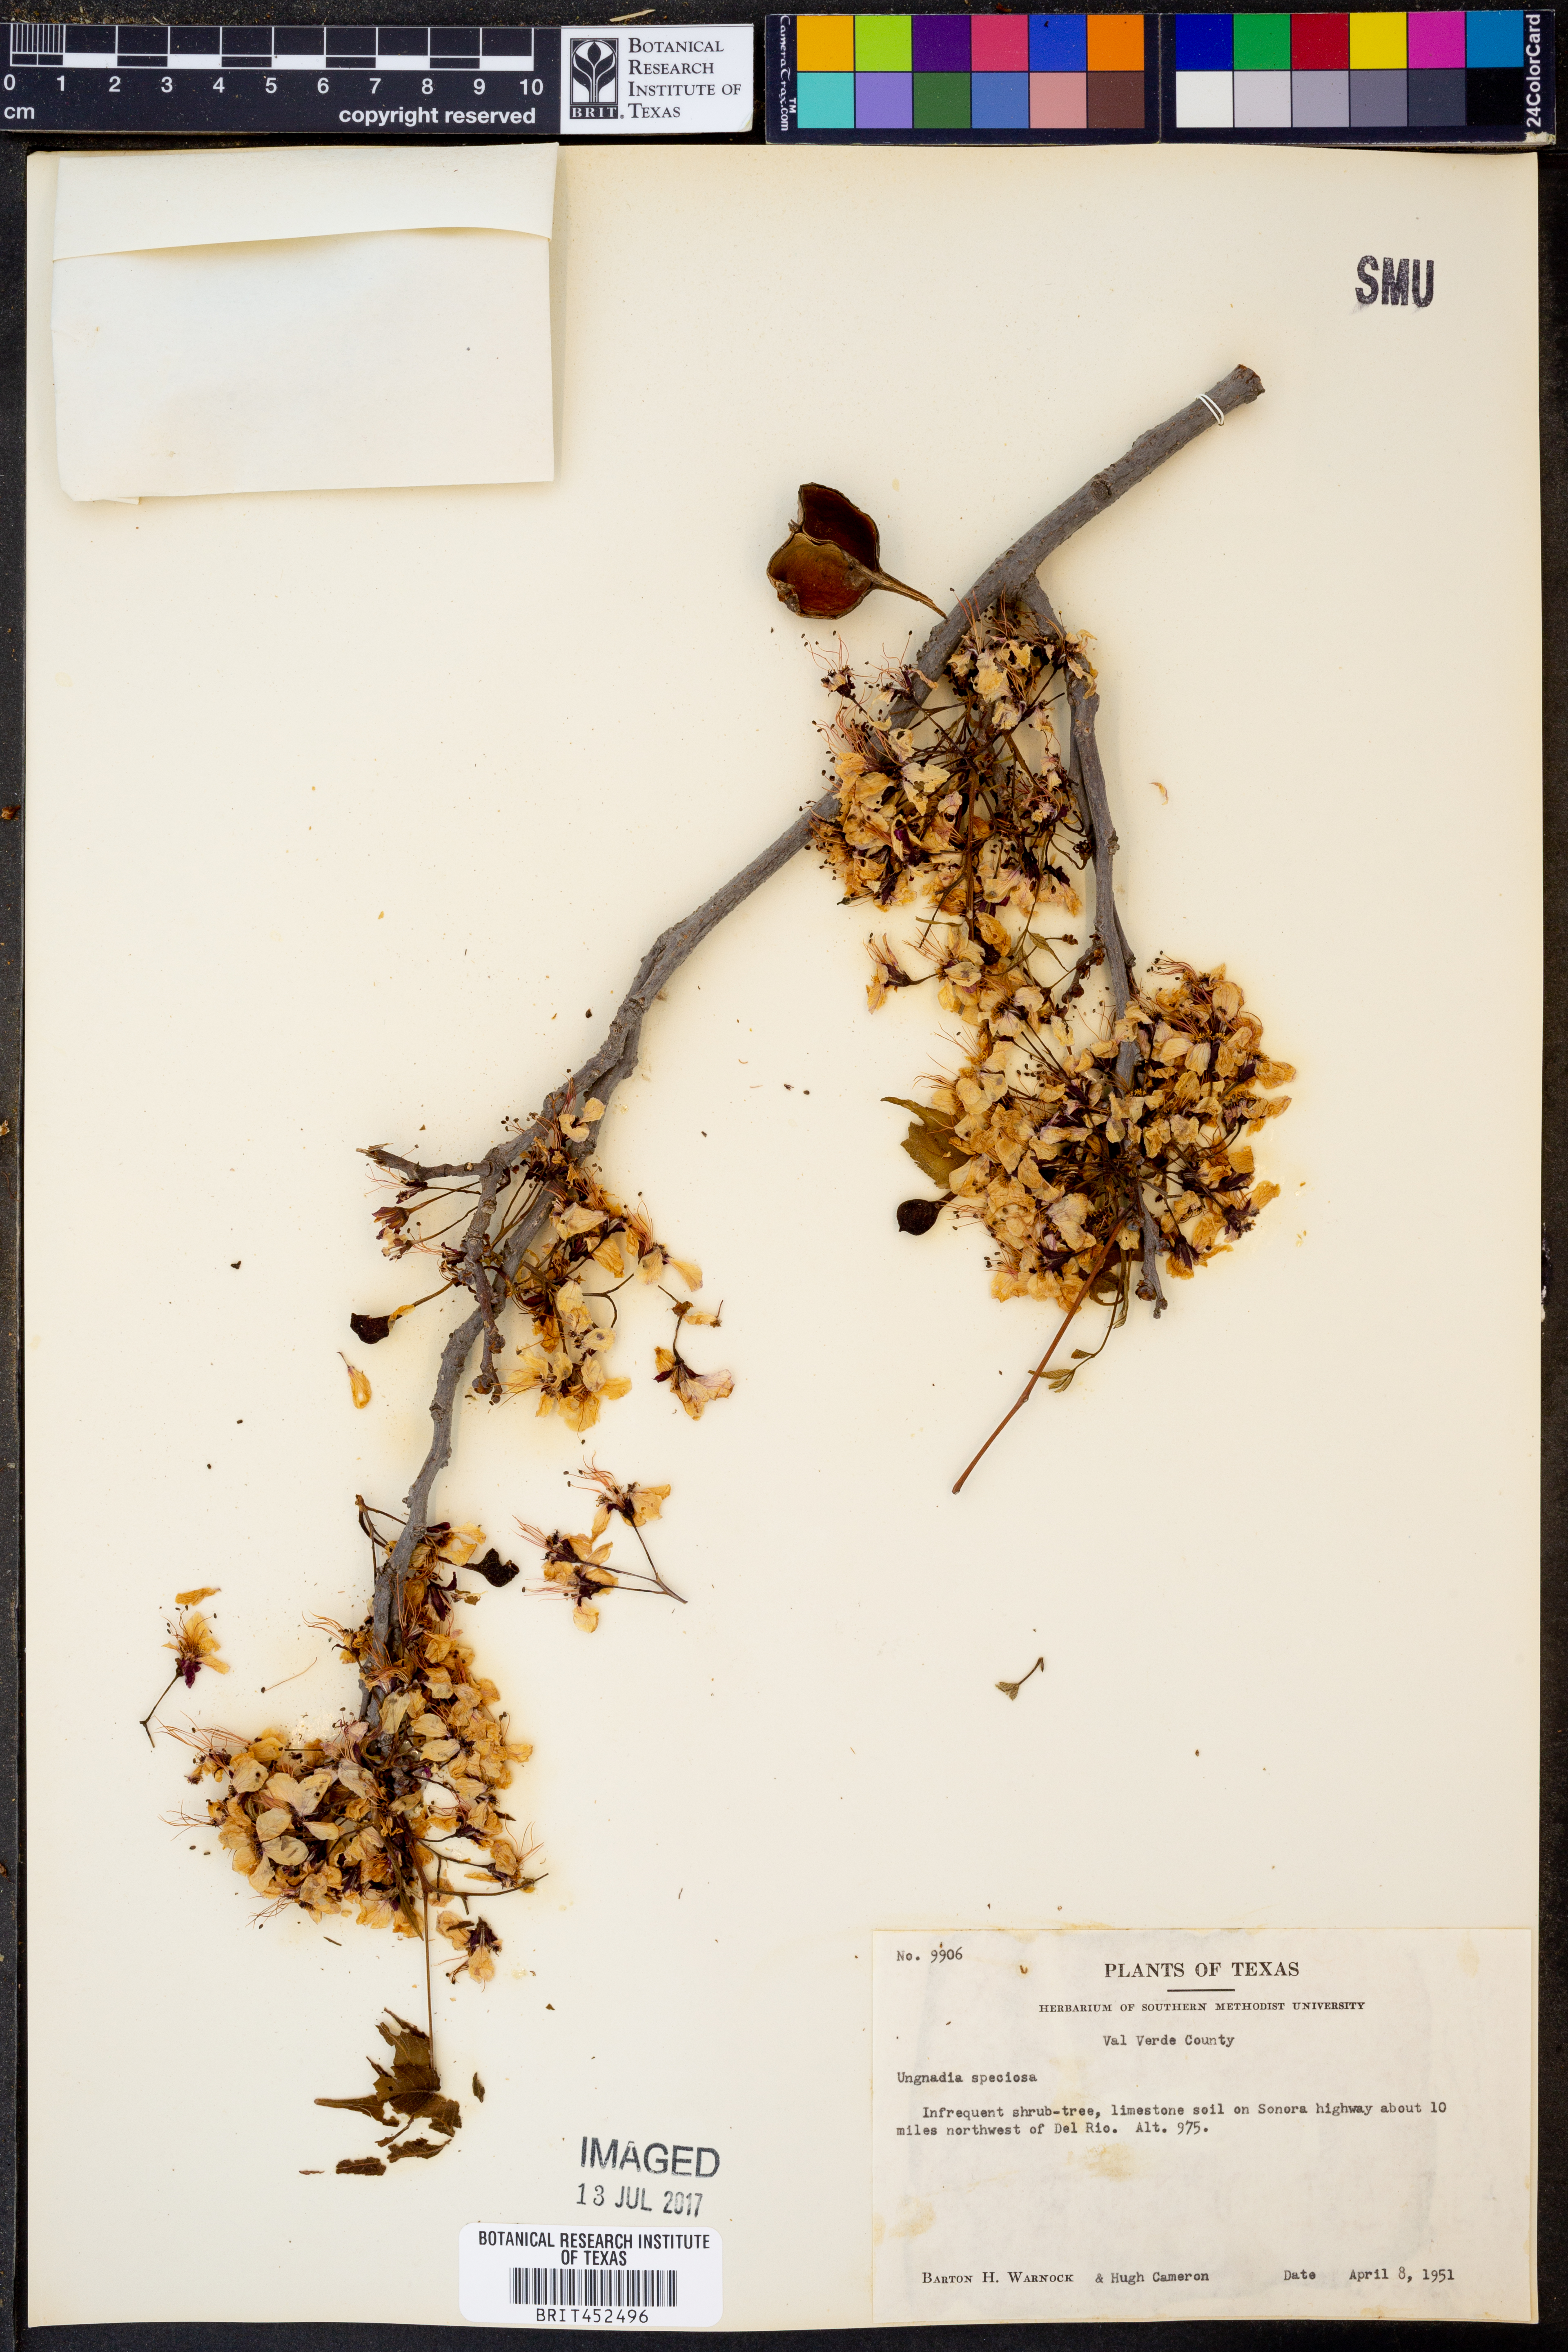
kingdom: Plantae
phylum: Tracheophyta
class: Magnoliopsida
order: Sapindales
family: Sapindaceae
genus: Ungnadia
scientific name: Ungnadia speciosa
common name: Texas-buckeye
